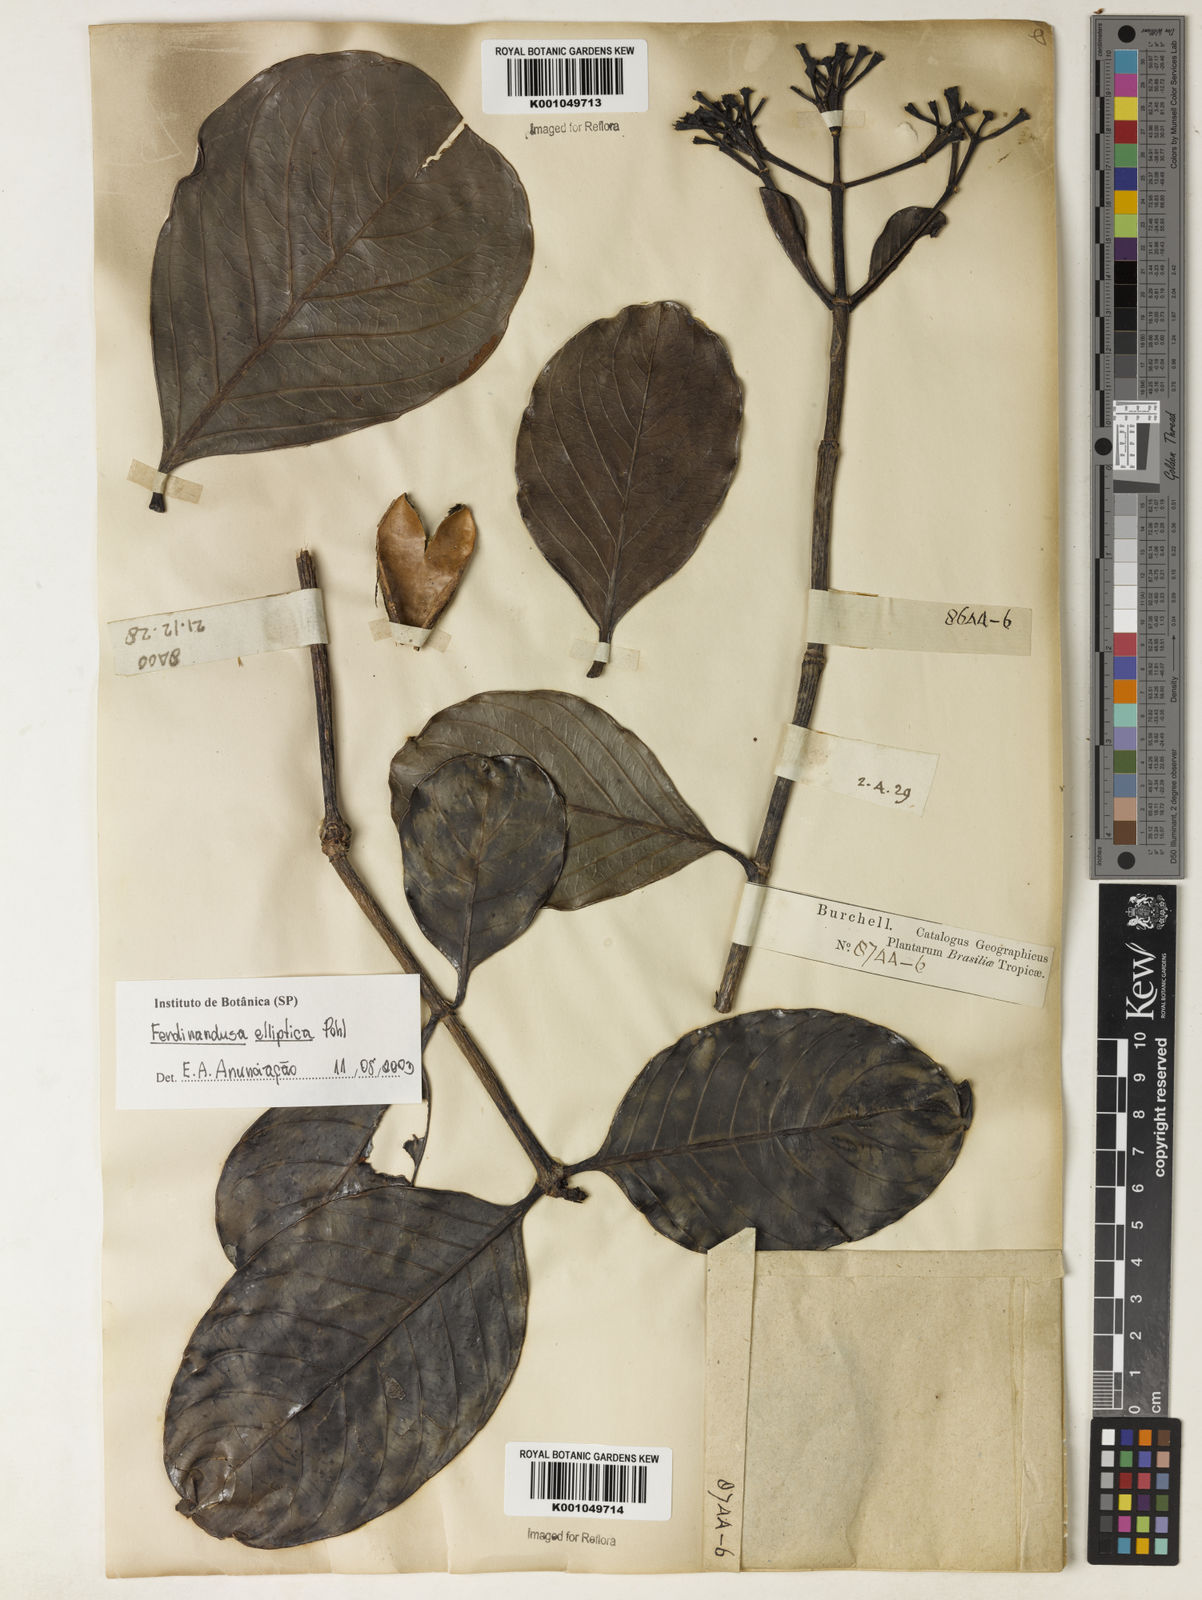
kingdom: Plantae
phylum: Tracheophyta
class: Magnoliopsida
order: Gentianales
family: Rubiaceae
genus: Ferdinandusa
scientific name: Ferdinandusa elliptica
